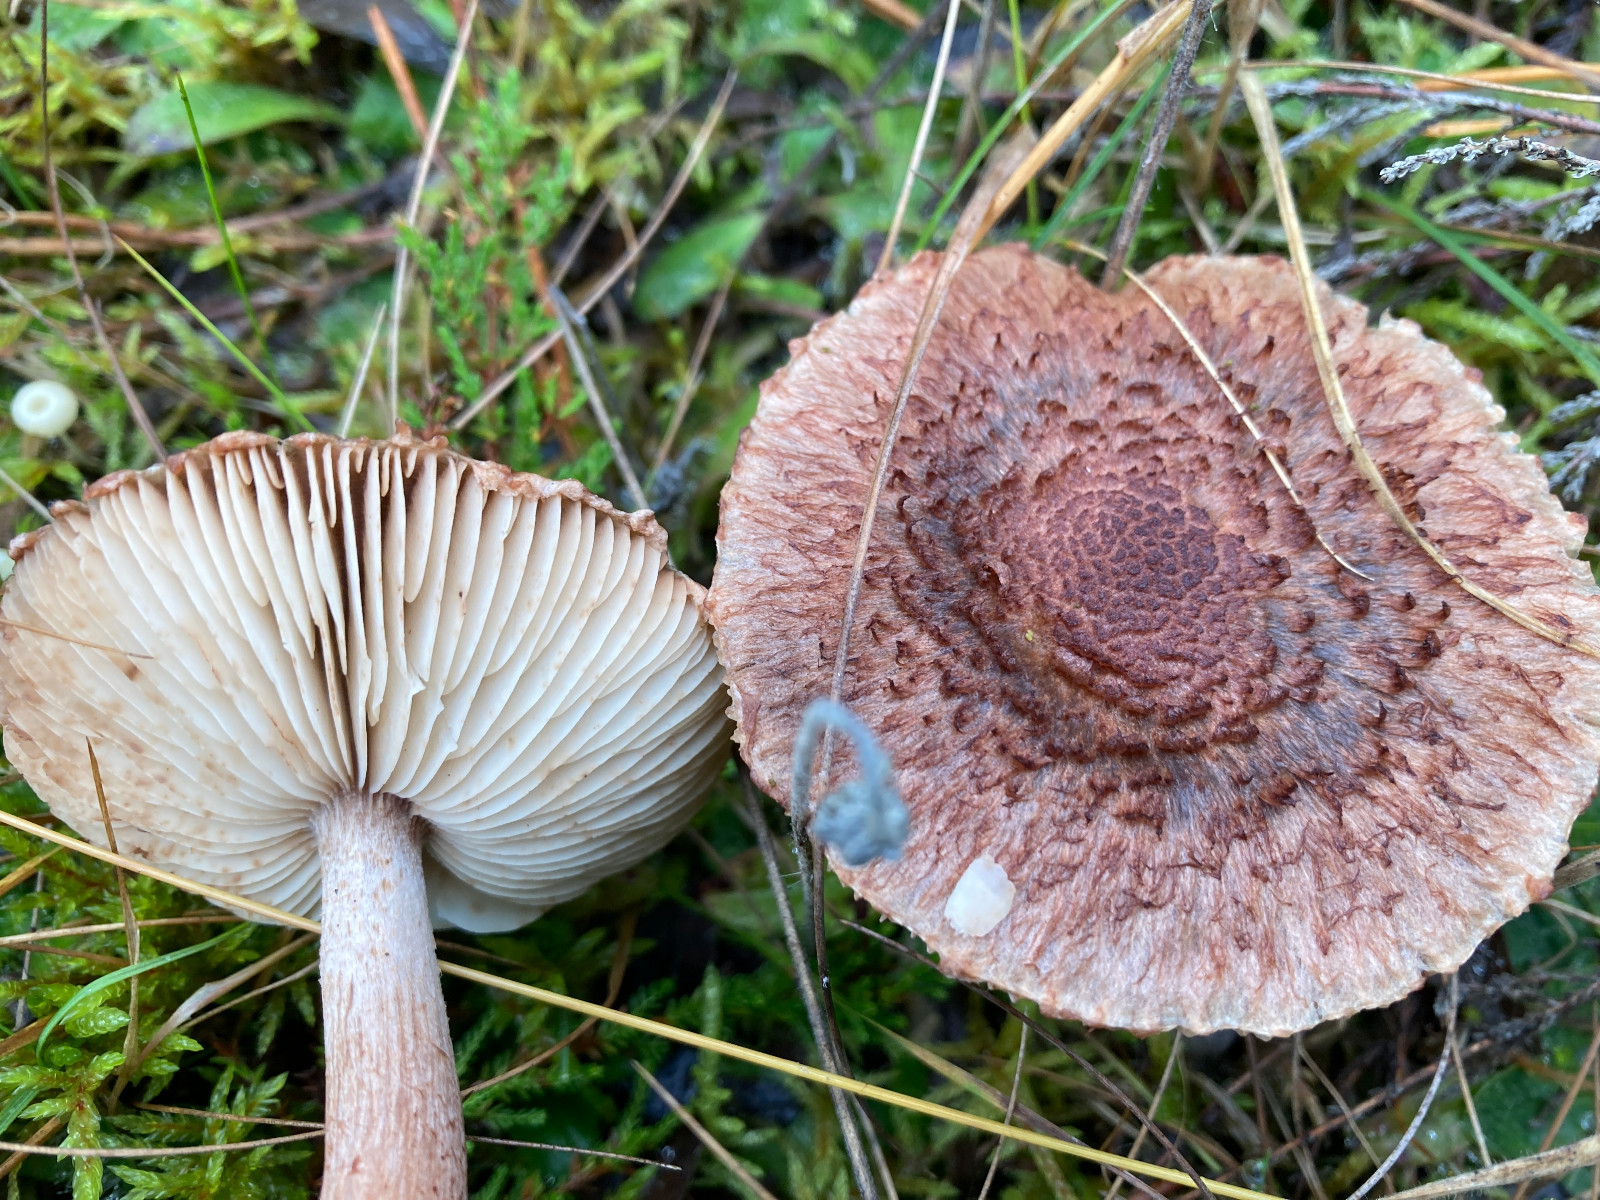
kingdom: Fungi
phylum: Basidiomycota
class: Agaricomycetes
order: Agaricales
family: Tricholomataceae
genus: Tricholoma
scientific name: Tricholoma vaccinum
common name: ko-ridderhat
